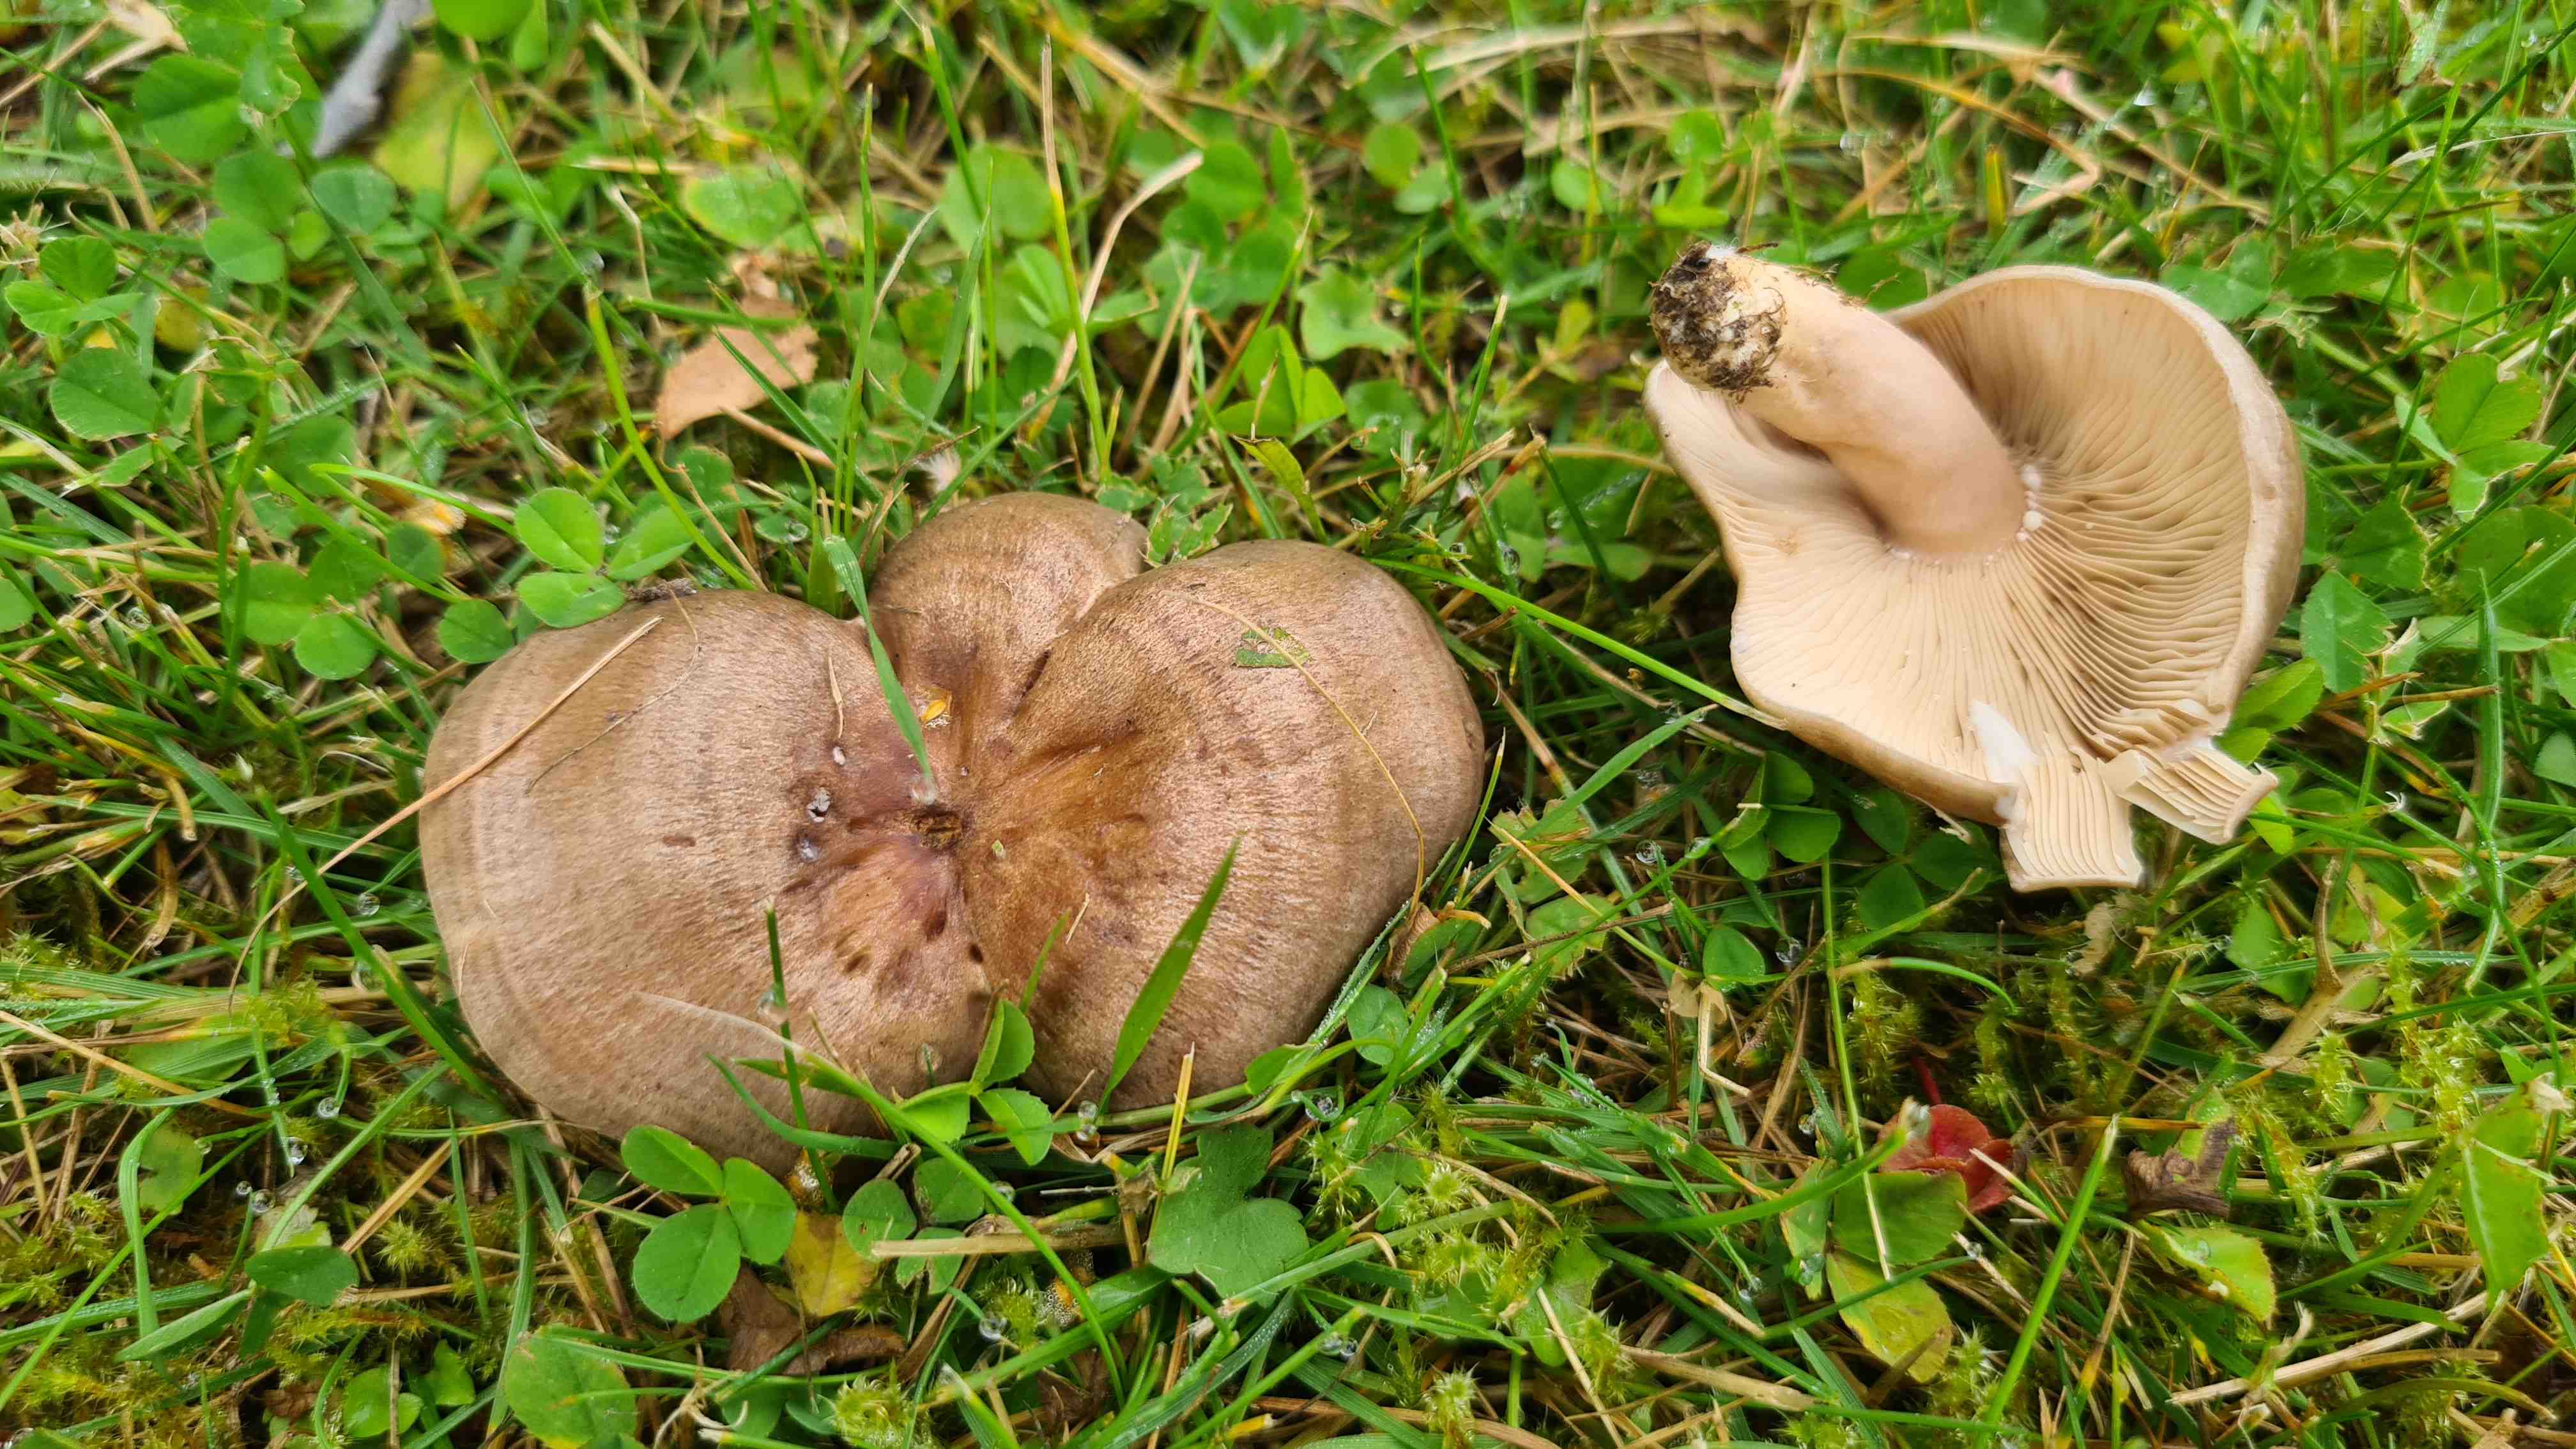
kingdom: Fungi
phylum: Basidiomycota
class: Agaricomycetes
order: Russulales
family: Russulaceae
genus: Lactarius
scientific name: Lactarius quietus
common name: ege-mælkehat
